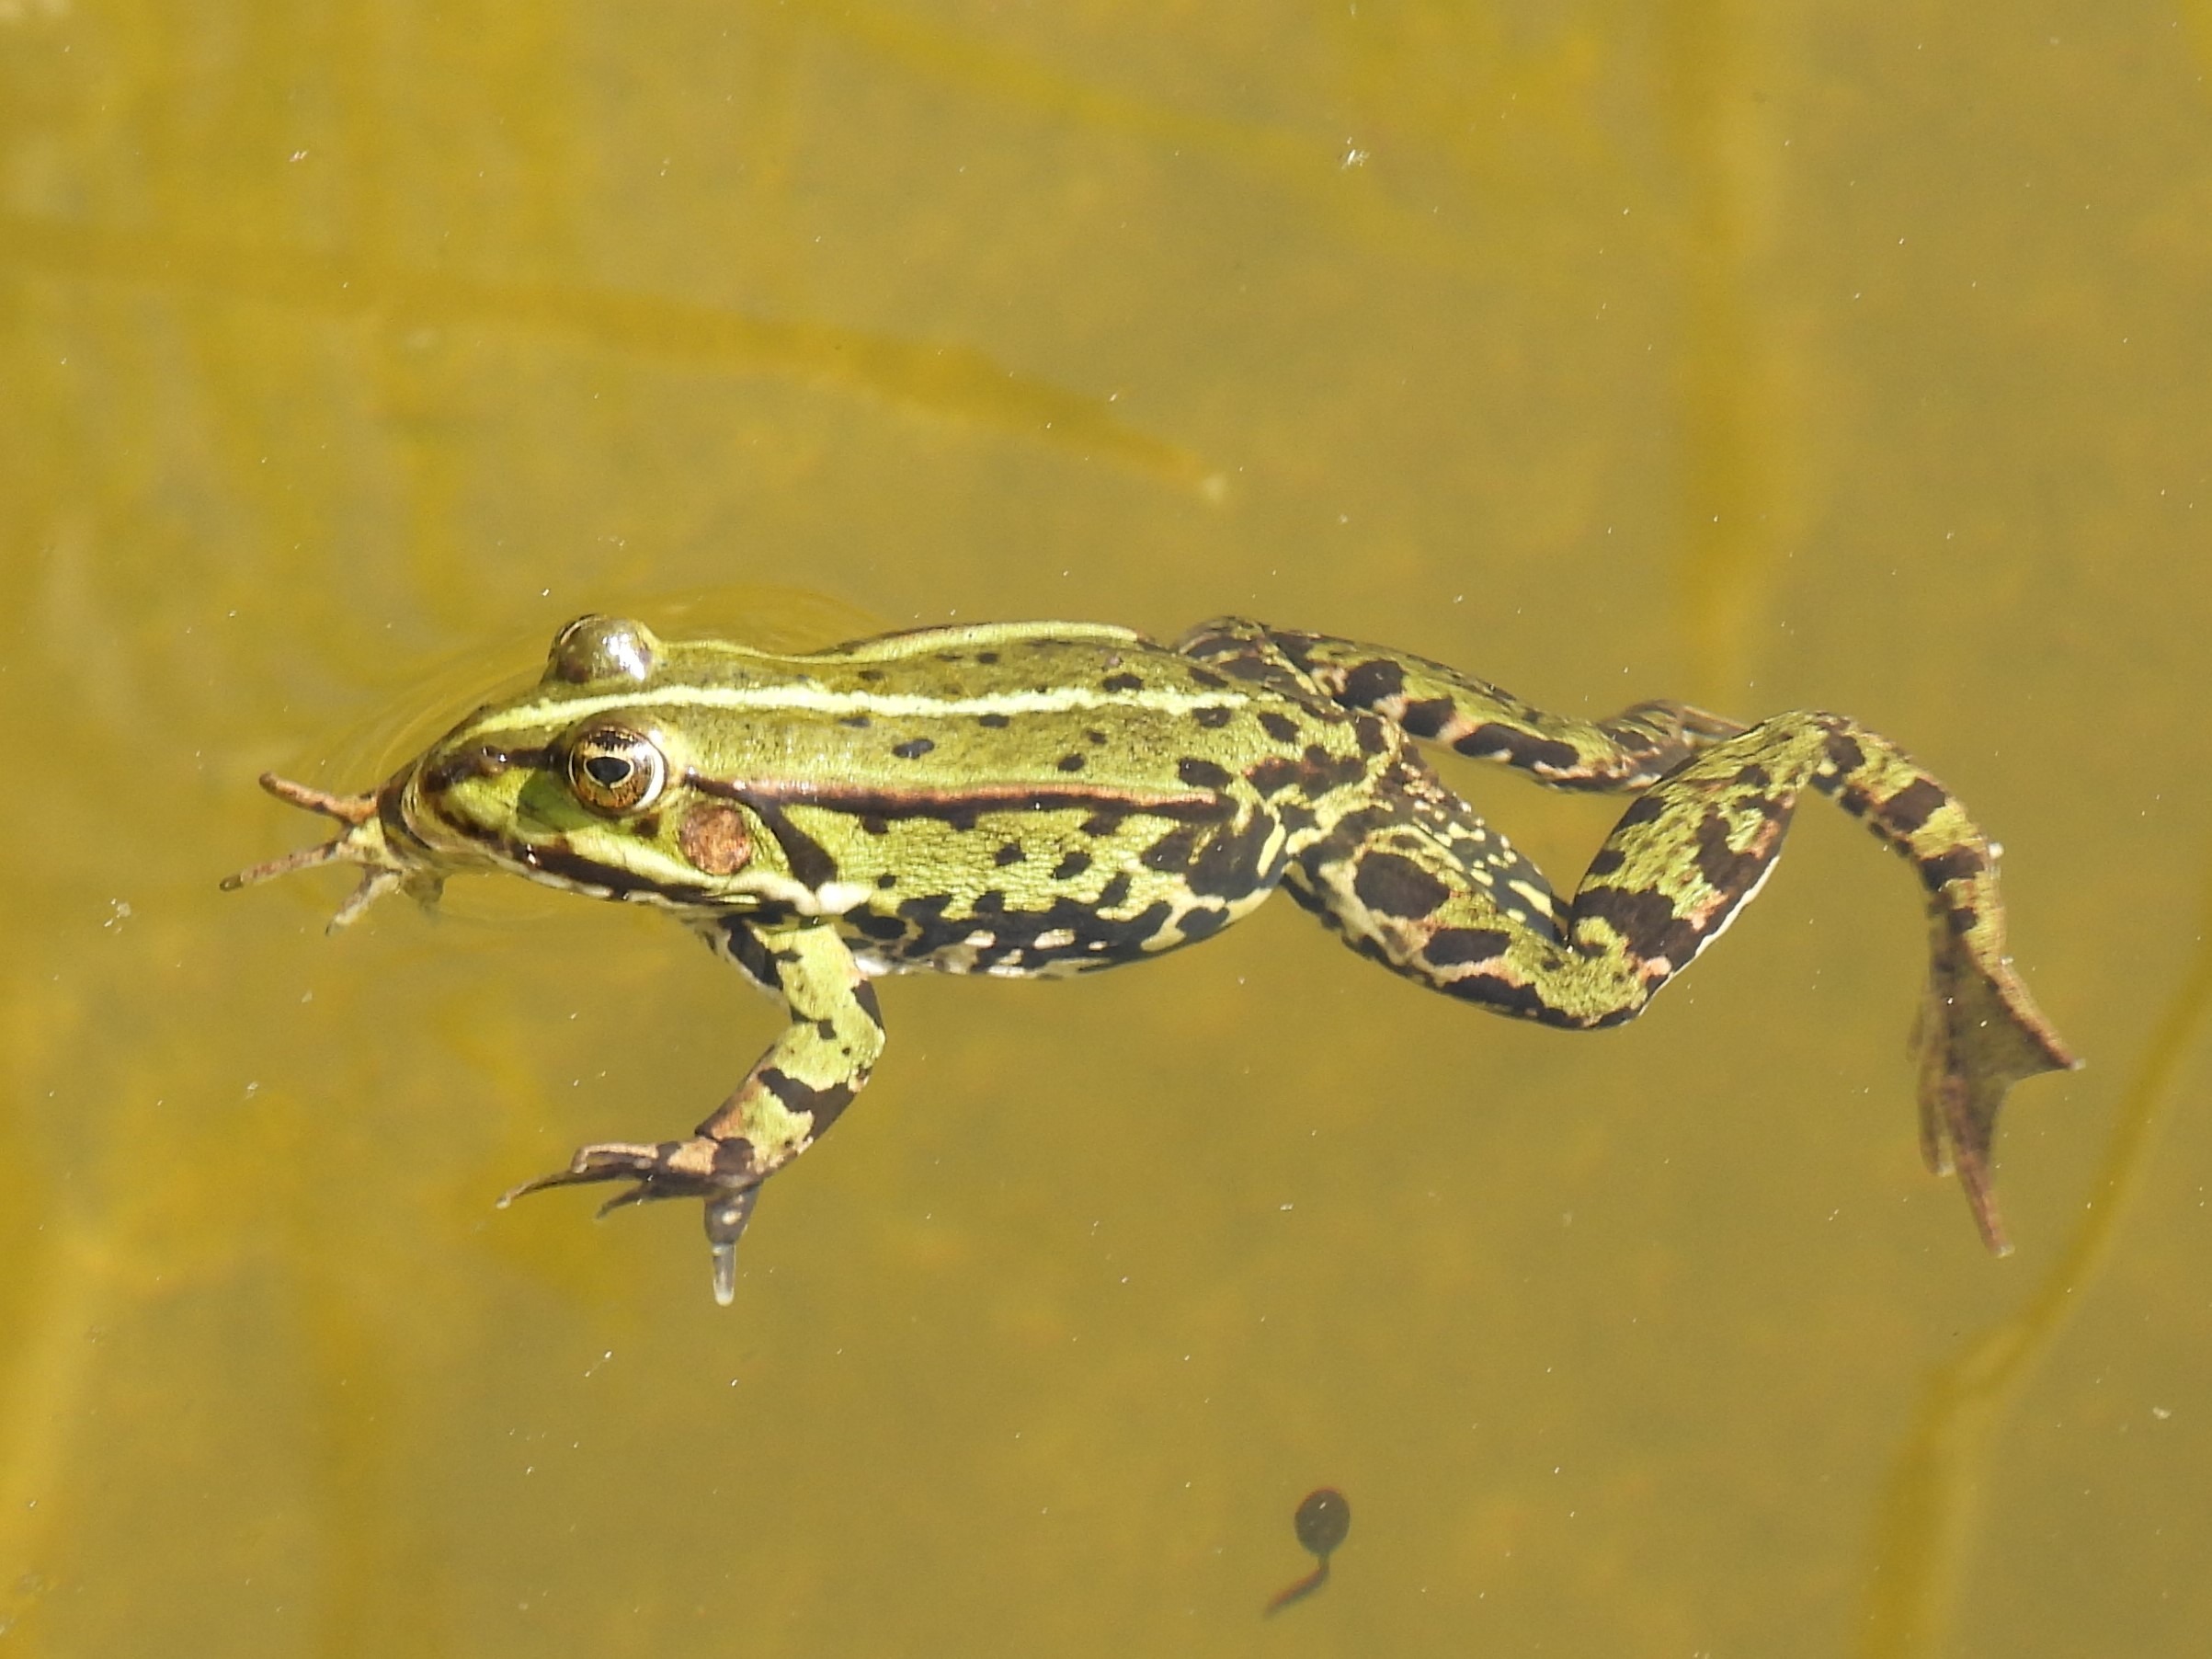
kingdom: Animalia
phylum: Chordata
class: Amphibia
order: Anura
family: Ranidae
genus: Pelophylax
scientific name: Pelophylax lessonae
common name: Grøn frø
